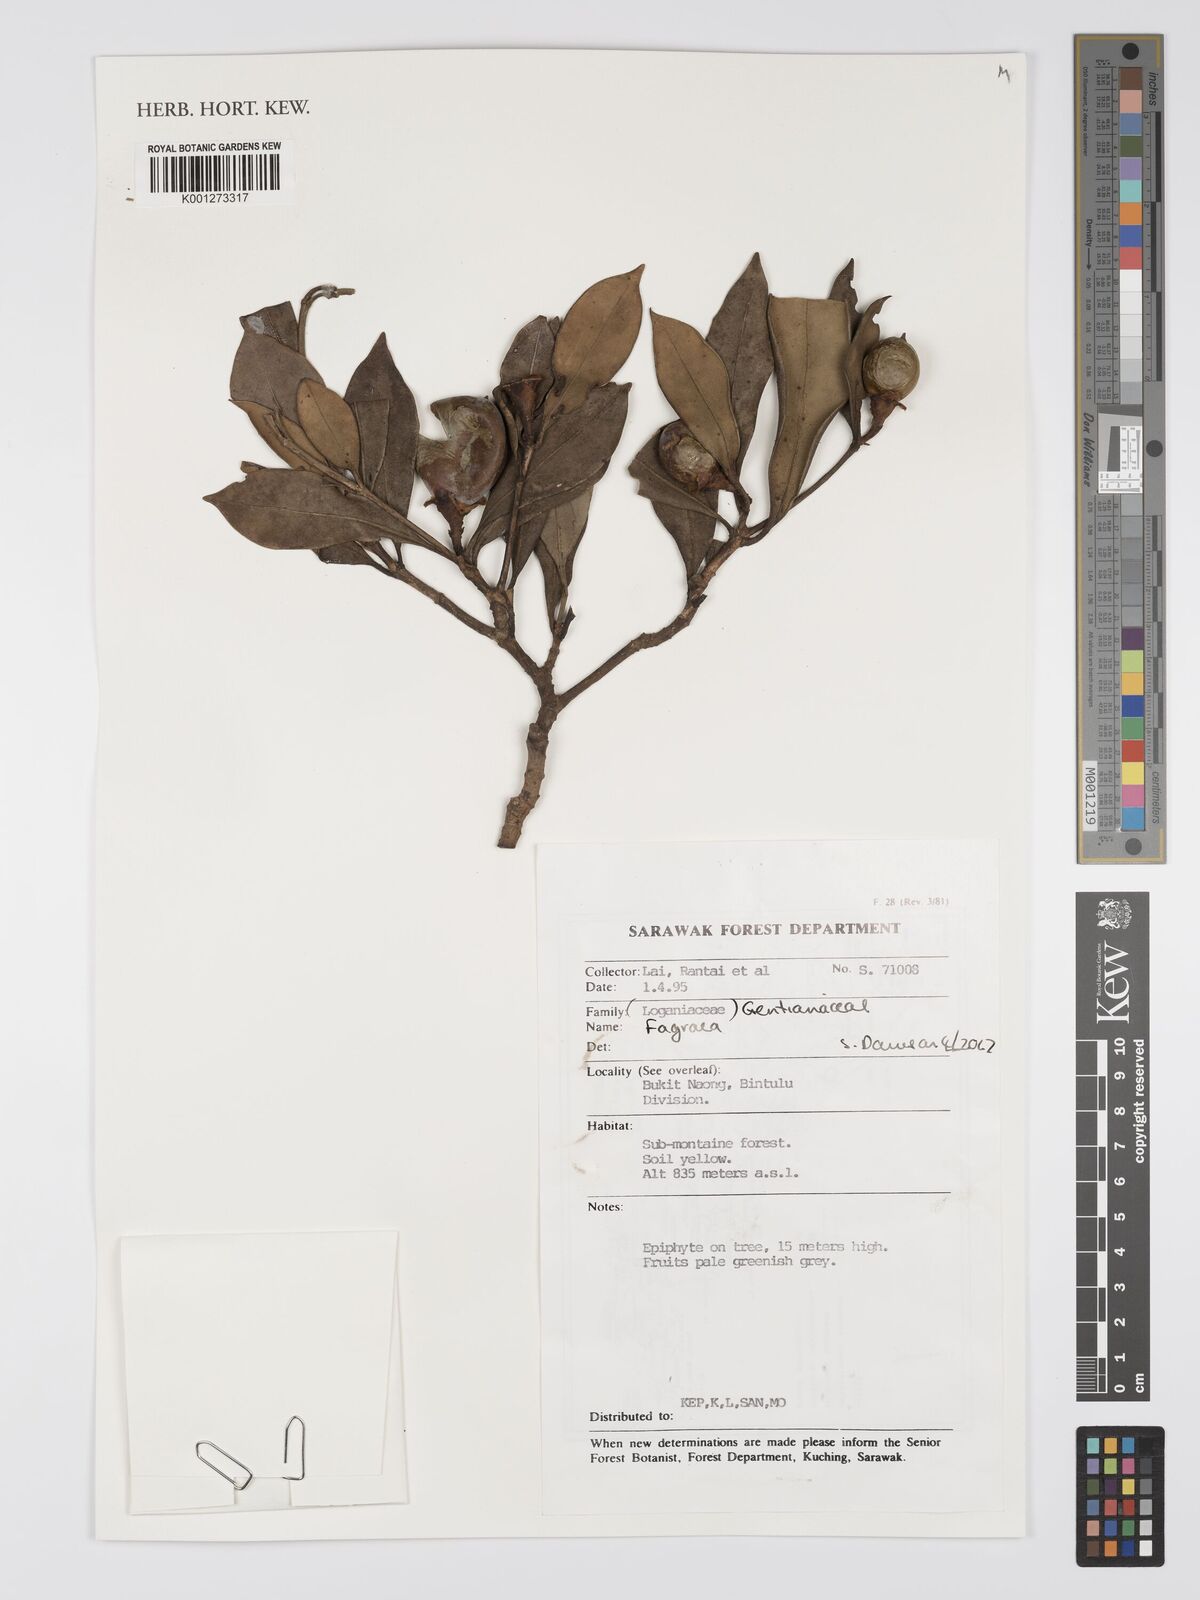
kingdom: Plantae
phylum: Tracheophyta
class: Magnoliopsida
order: Gentianales
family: Gentianaceae
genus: Fagraea
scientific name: Fagraea
